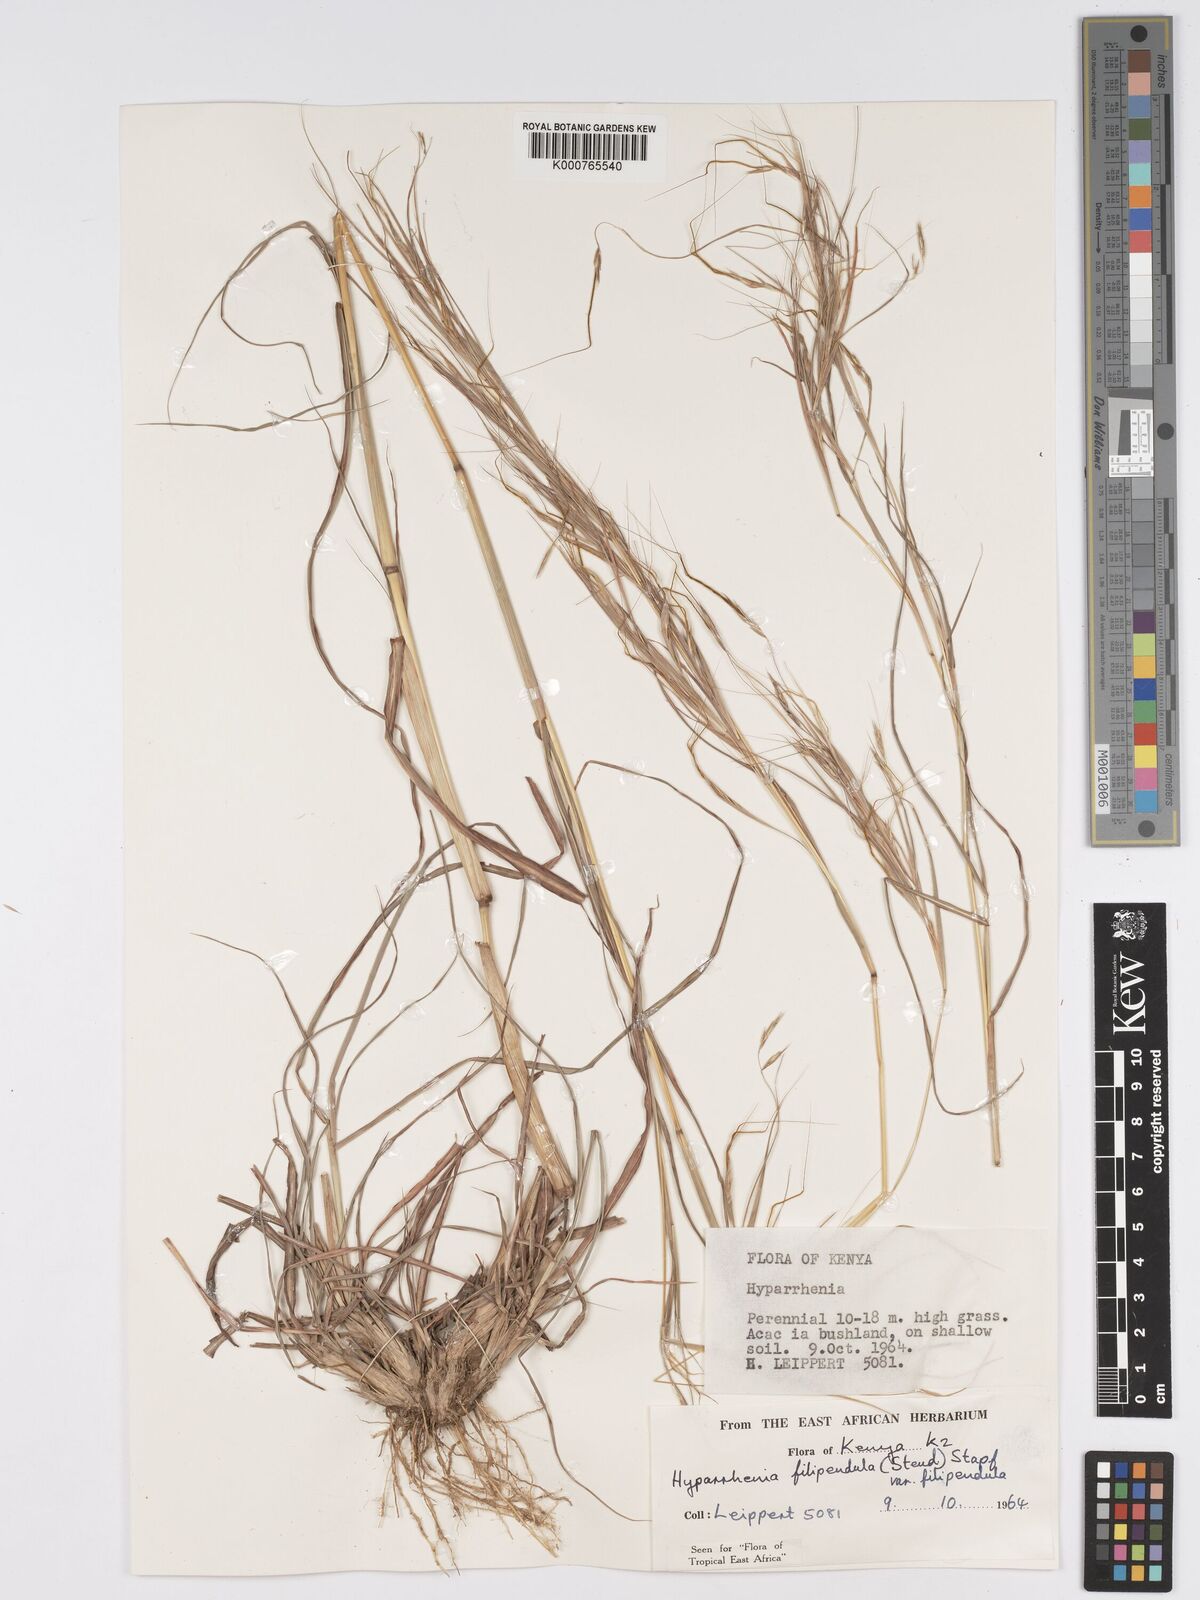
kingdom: Plantae
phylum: Tracheophyta
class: Liliopsida
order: Poales
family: Poaceae
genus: Hyparrhenia
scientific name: Hyparrhenia filipendula
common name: Tambookie grass
